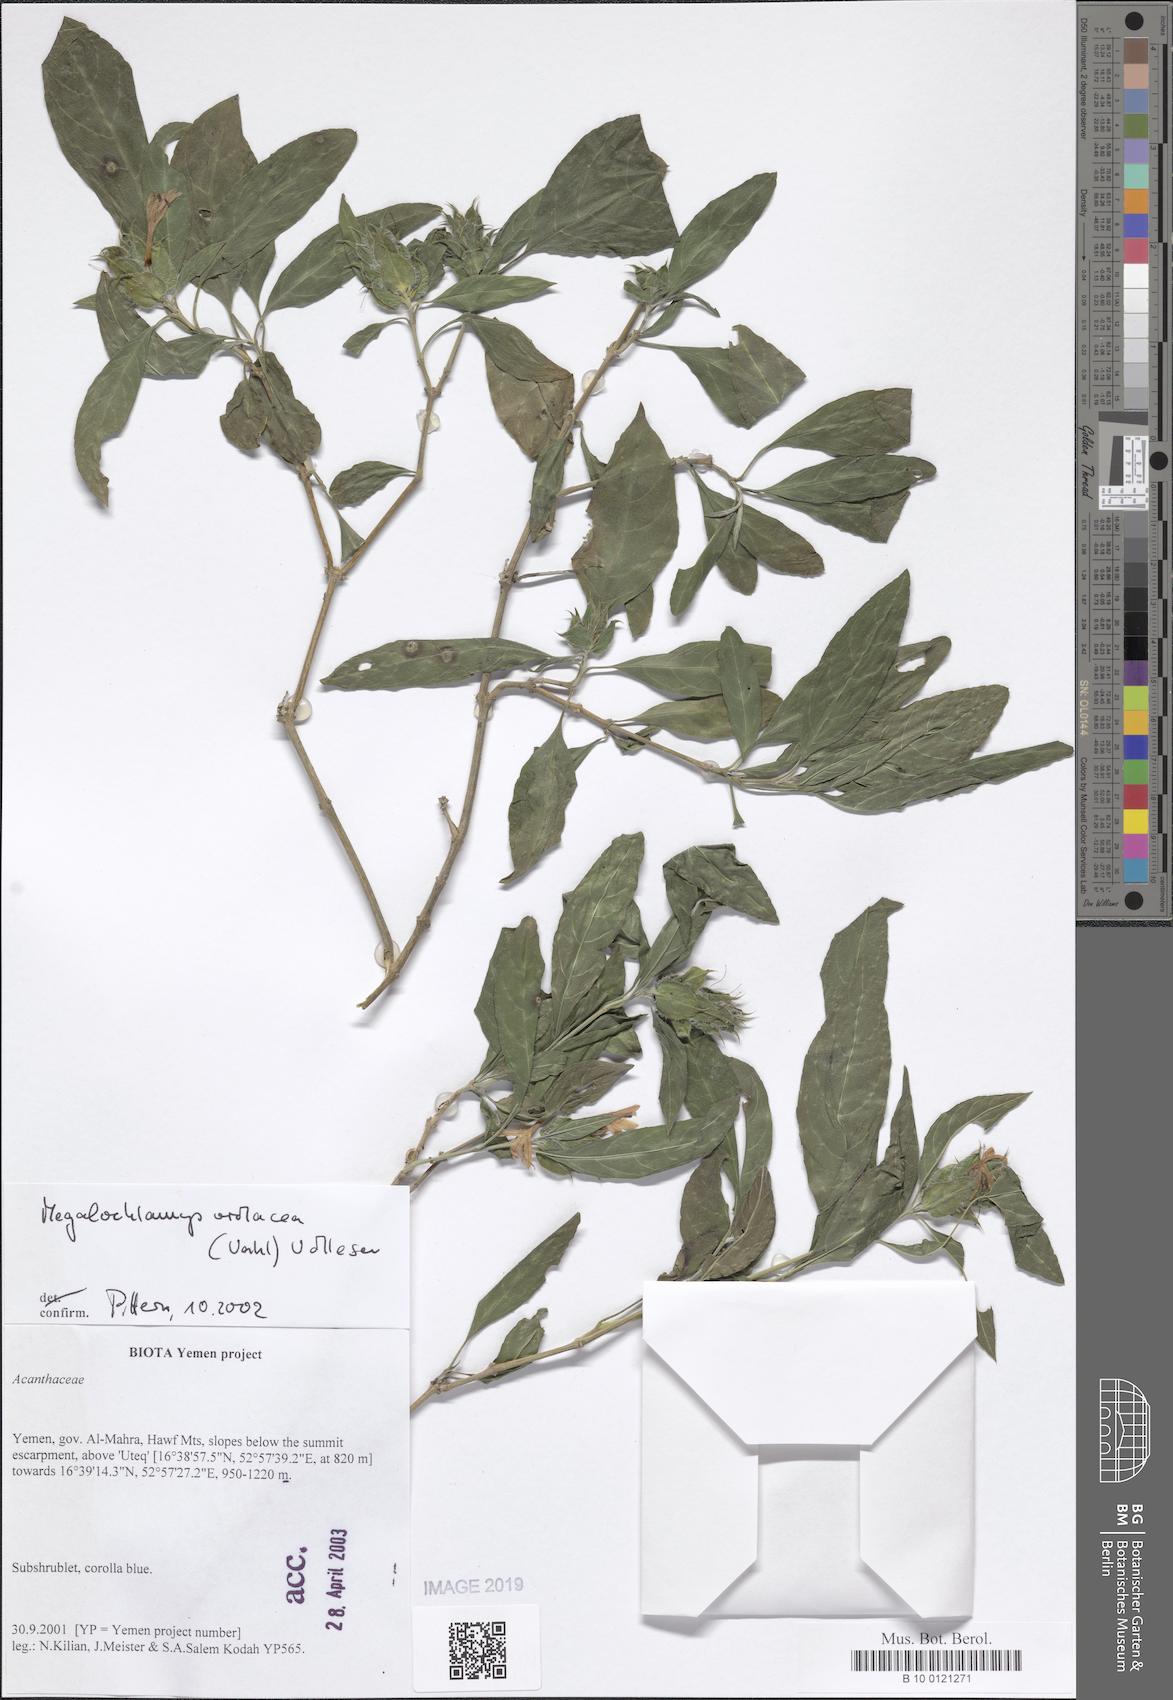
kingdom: Plantae
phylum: Tracheophyta
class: Magnoliopsida
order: Lamiales
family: Acanthaceae
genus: Megalochlamys
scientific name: Megalochlamys violacea
